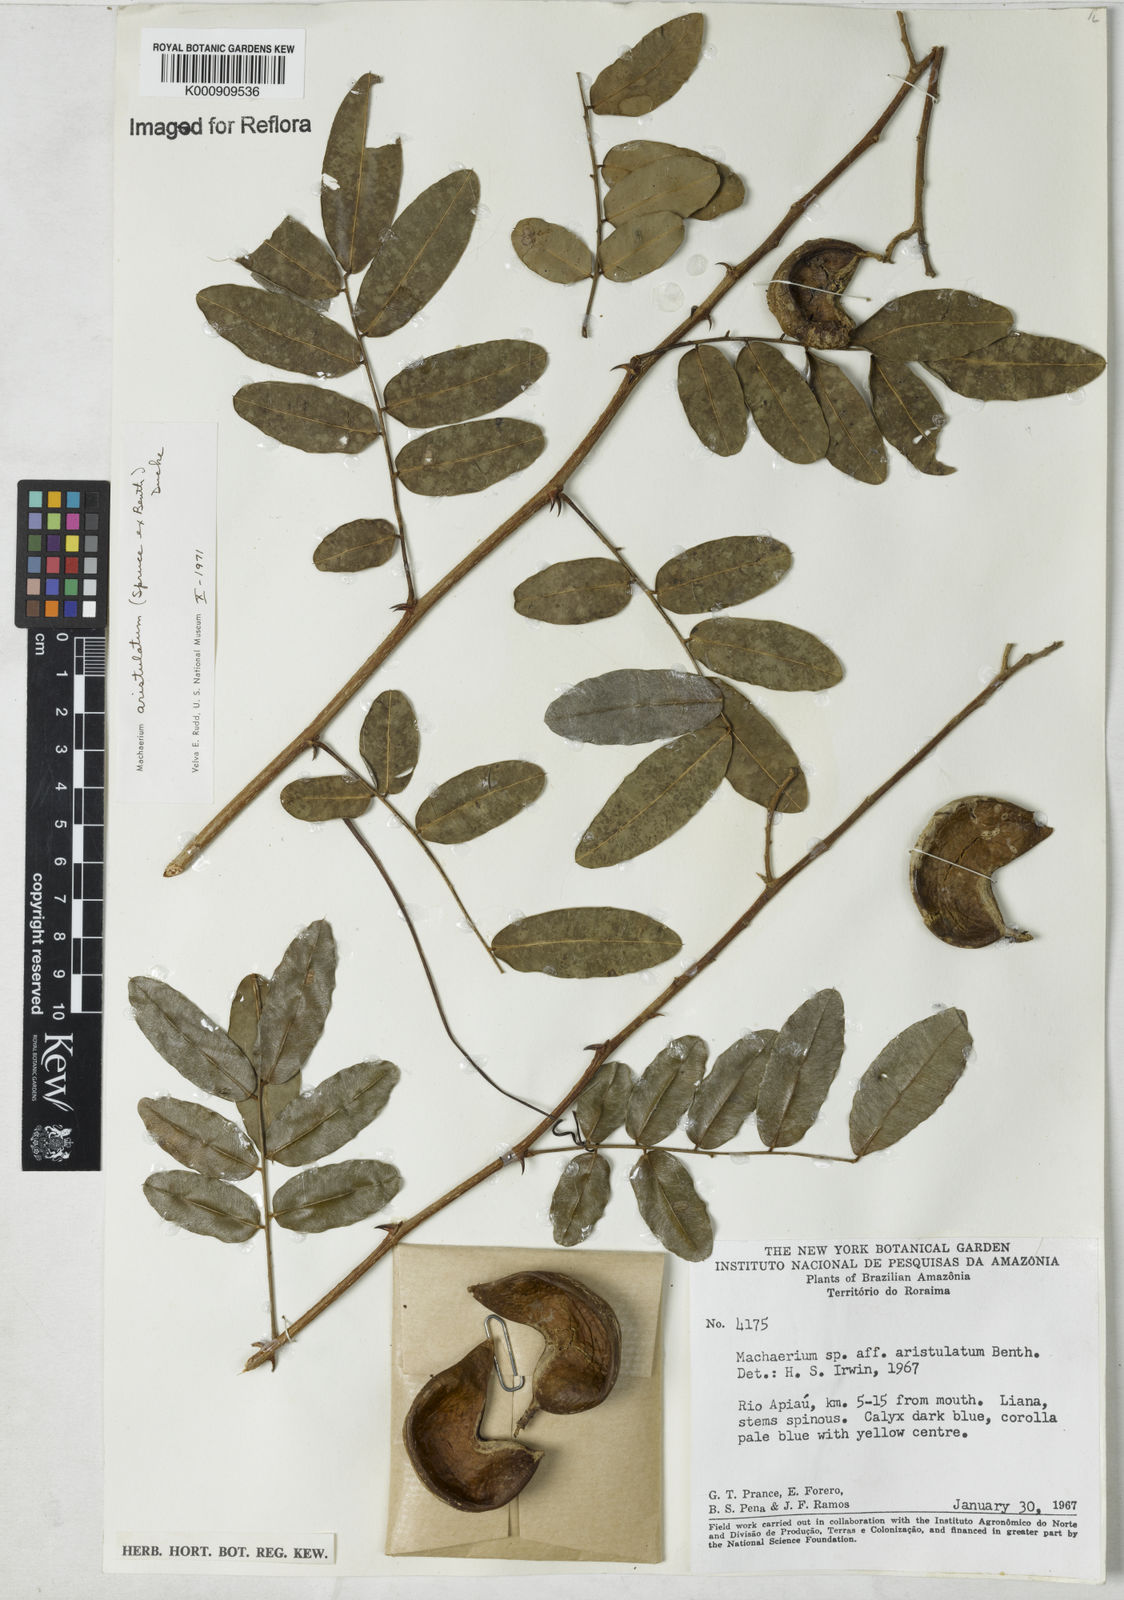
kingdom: Plantae
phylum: Tracheophyta
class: Magnoliopsida
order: Fabales
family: Fabaceae
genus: Machaerium
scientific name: Machaerium aristulatum
